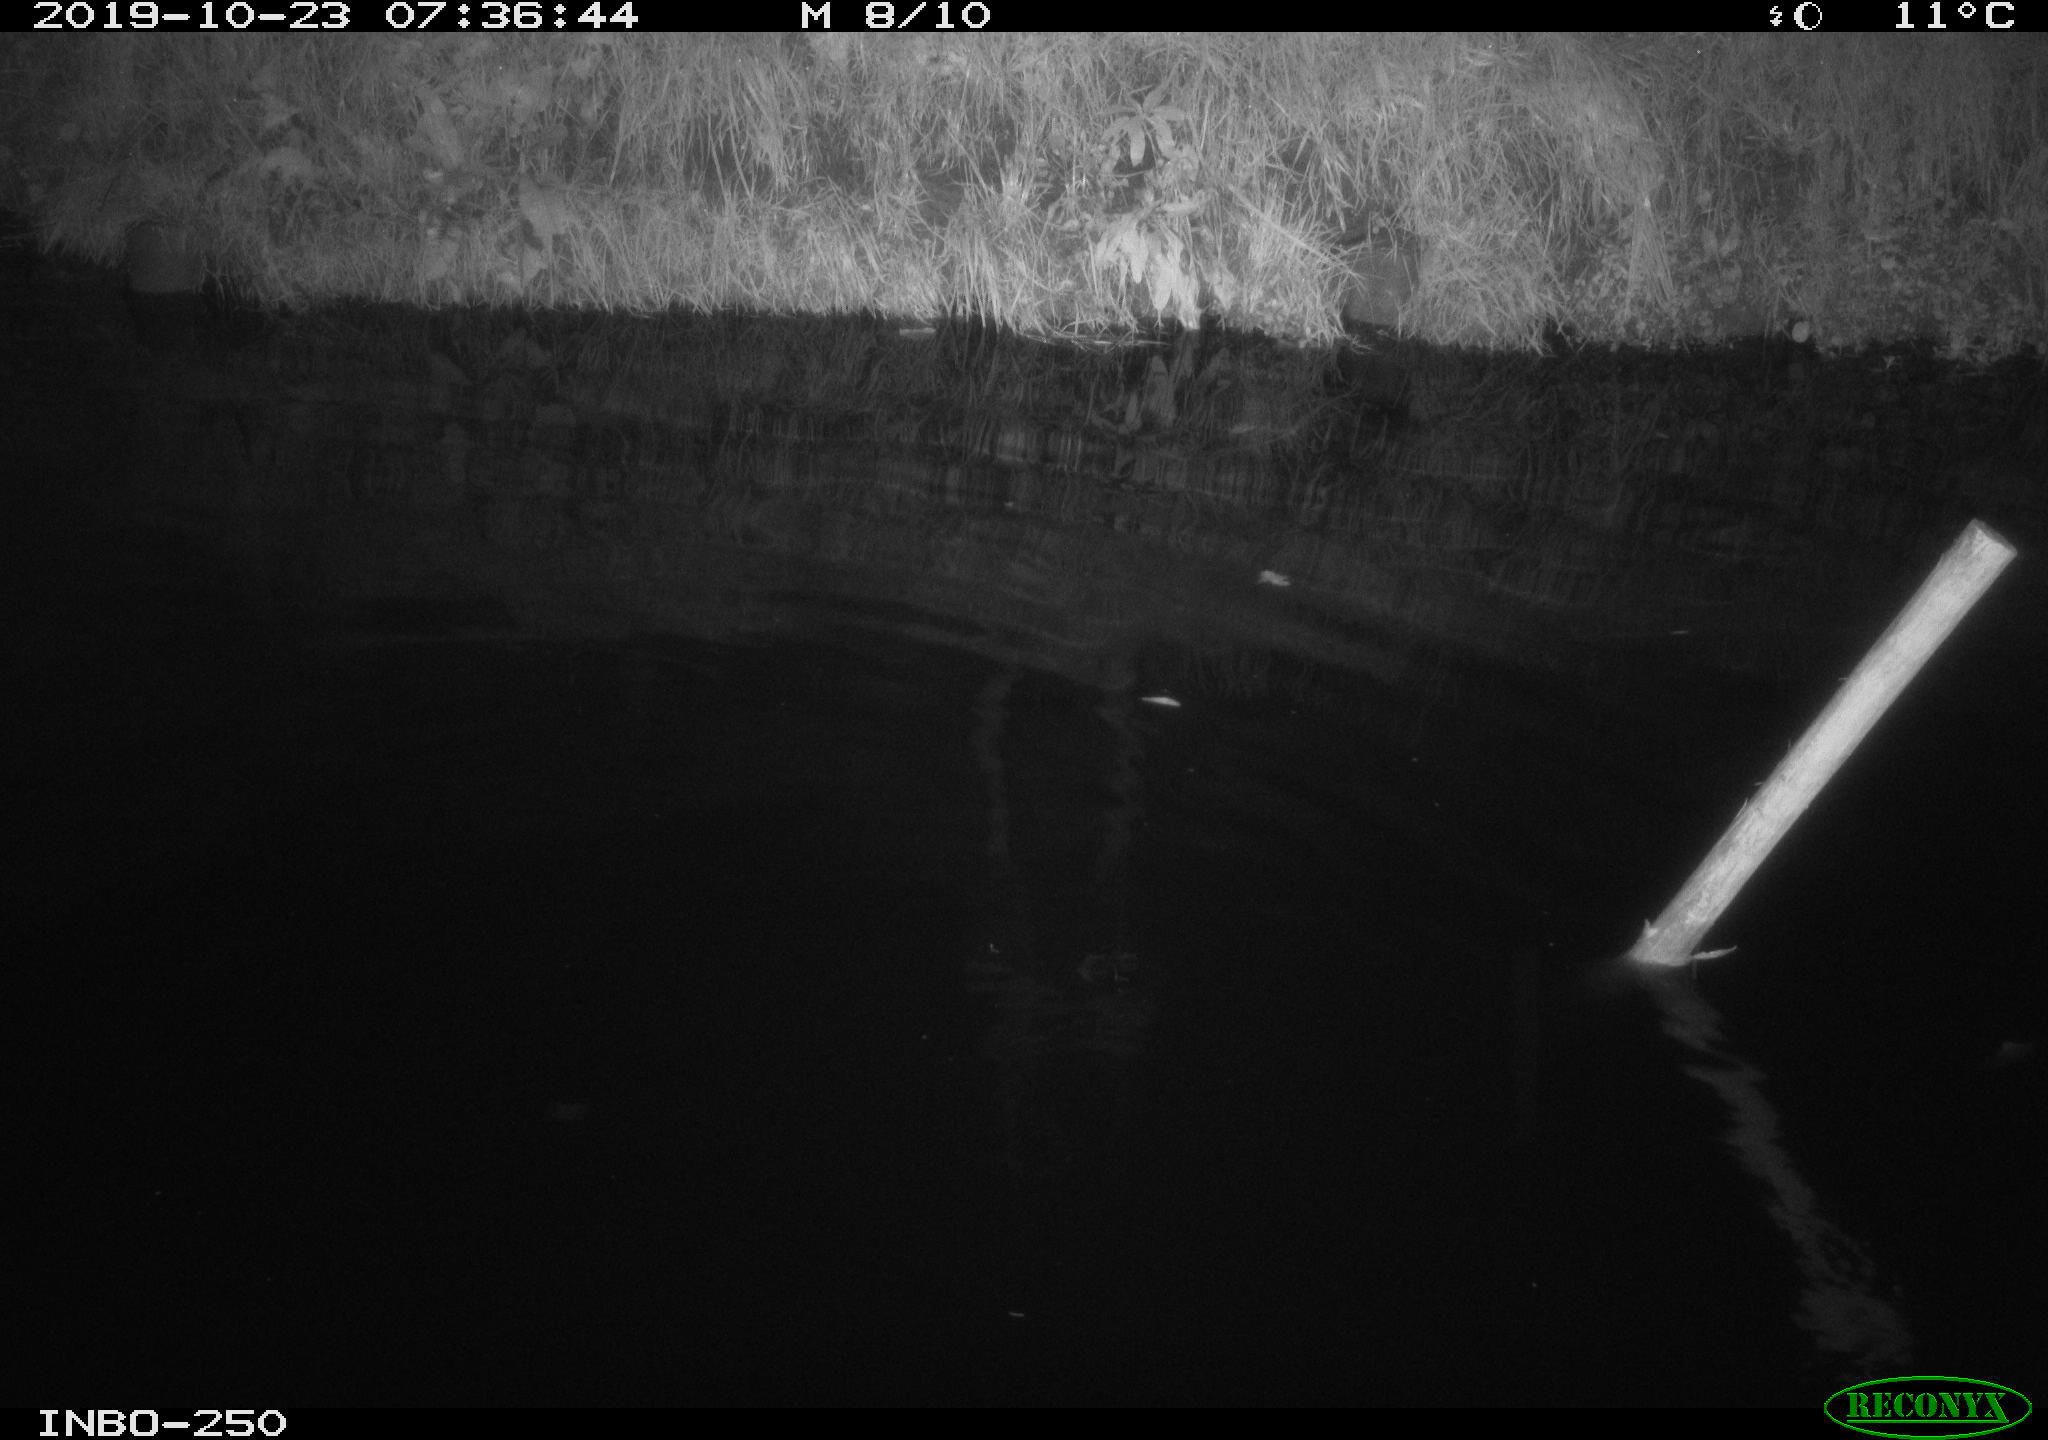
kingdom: Animalia
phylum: Chordata
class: Aves
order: Anseriformes
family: Anatidae
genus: Anas
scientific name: Anas platyrhynchos
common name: Mallard
